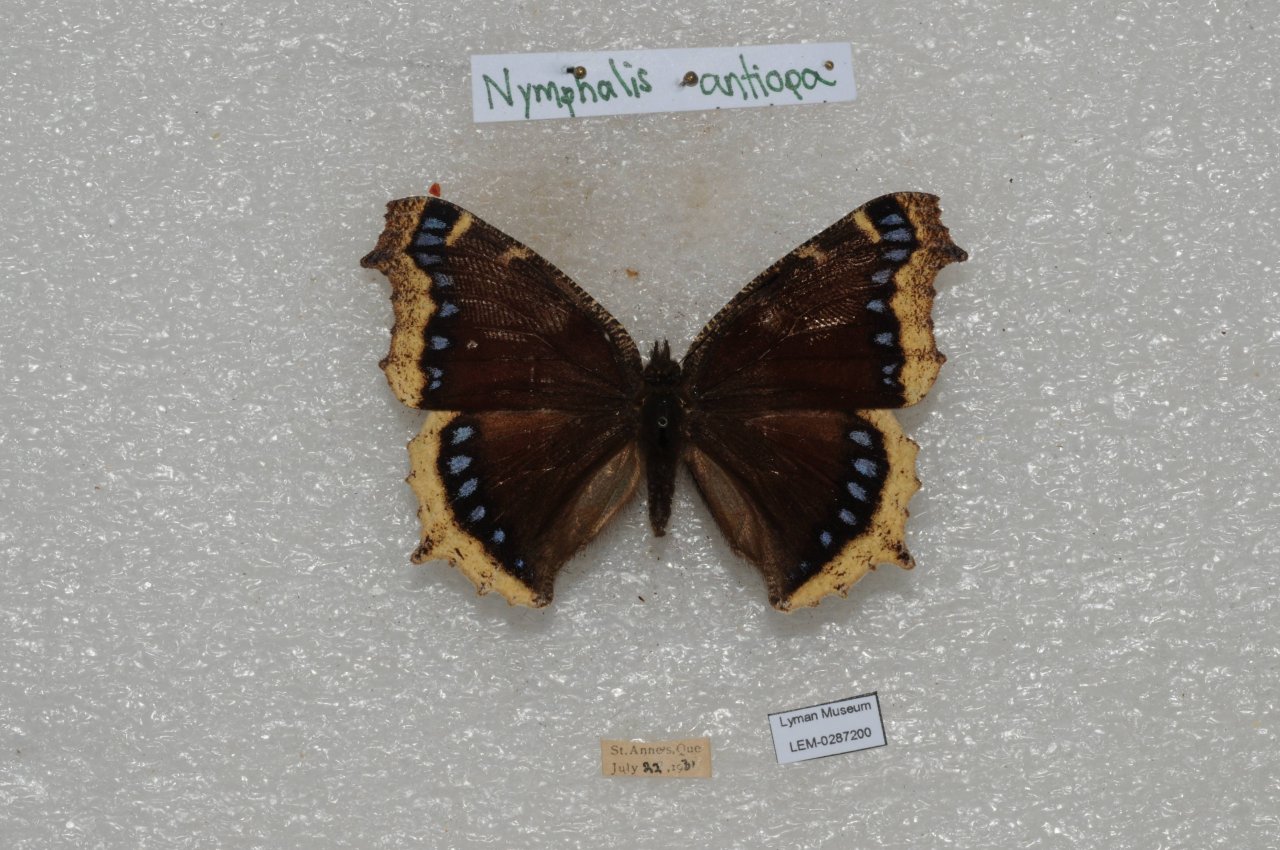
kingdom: Animalia
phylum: Arthropoda
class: Insecta
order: Lepidoptera
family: Nymphalidae
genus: Nymphalis
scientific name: Nymphalis antiopa
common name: Mourning Cloak
